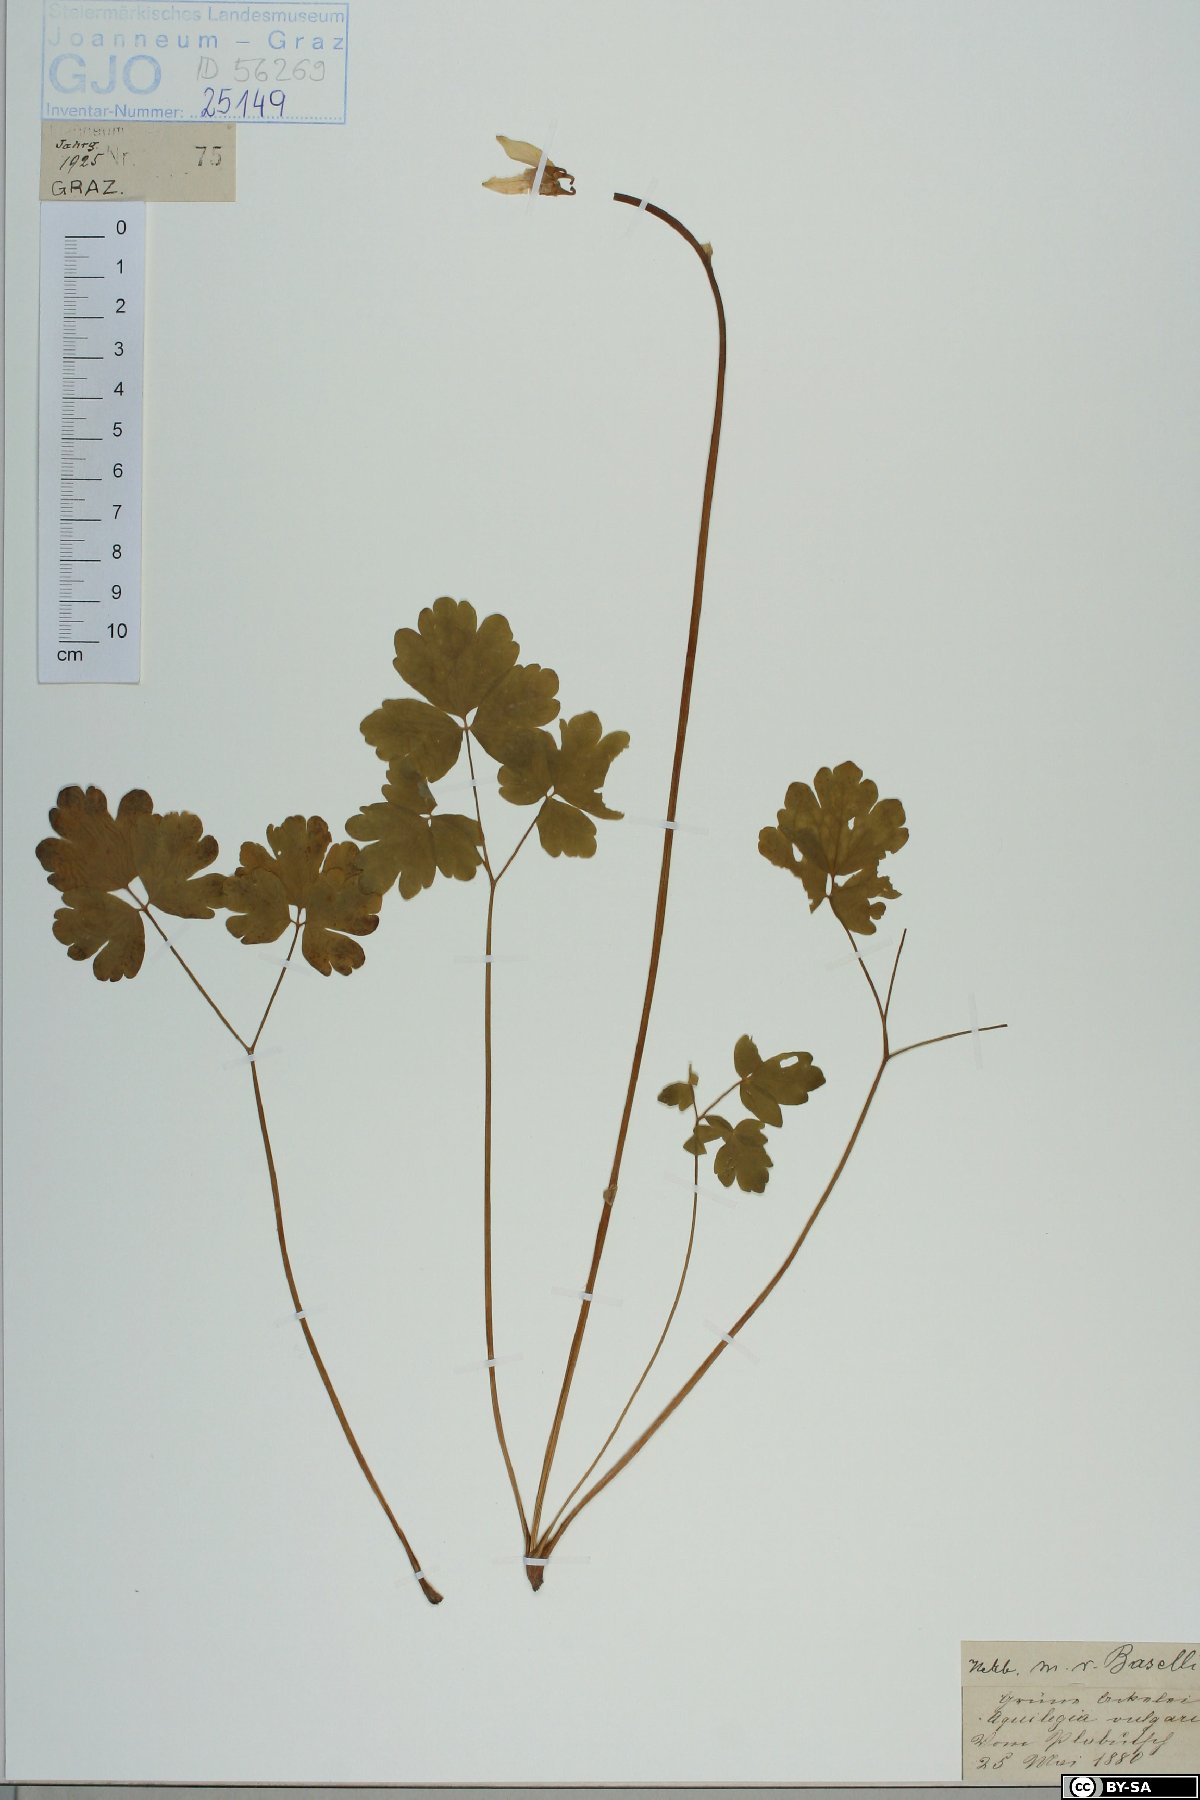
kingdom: Plantae
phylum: Tracheophyta
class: Magnoliopsida
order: Ranunculales
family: Ranunculaceae
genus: Aquilegia
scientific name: Aquilegia vulgaris
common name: Columbine
